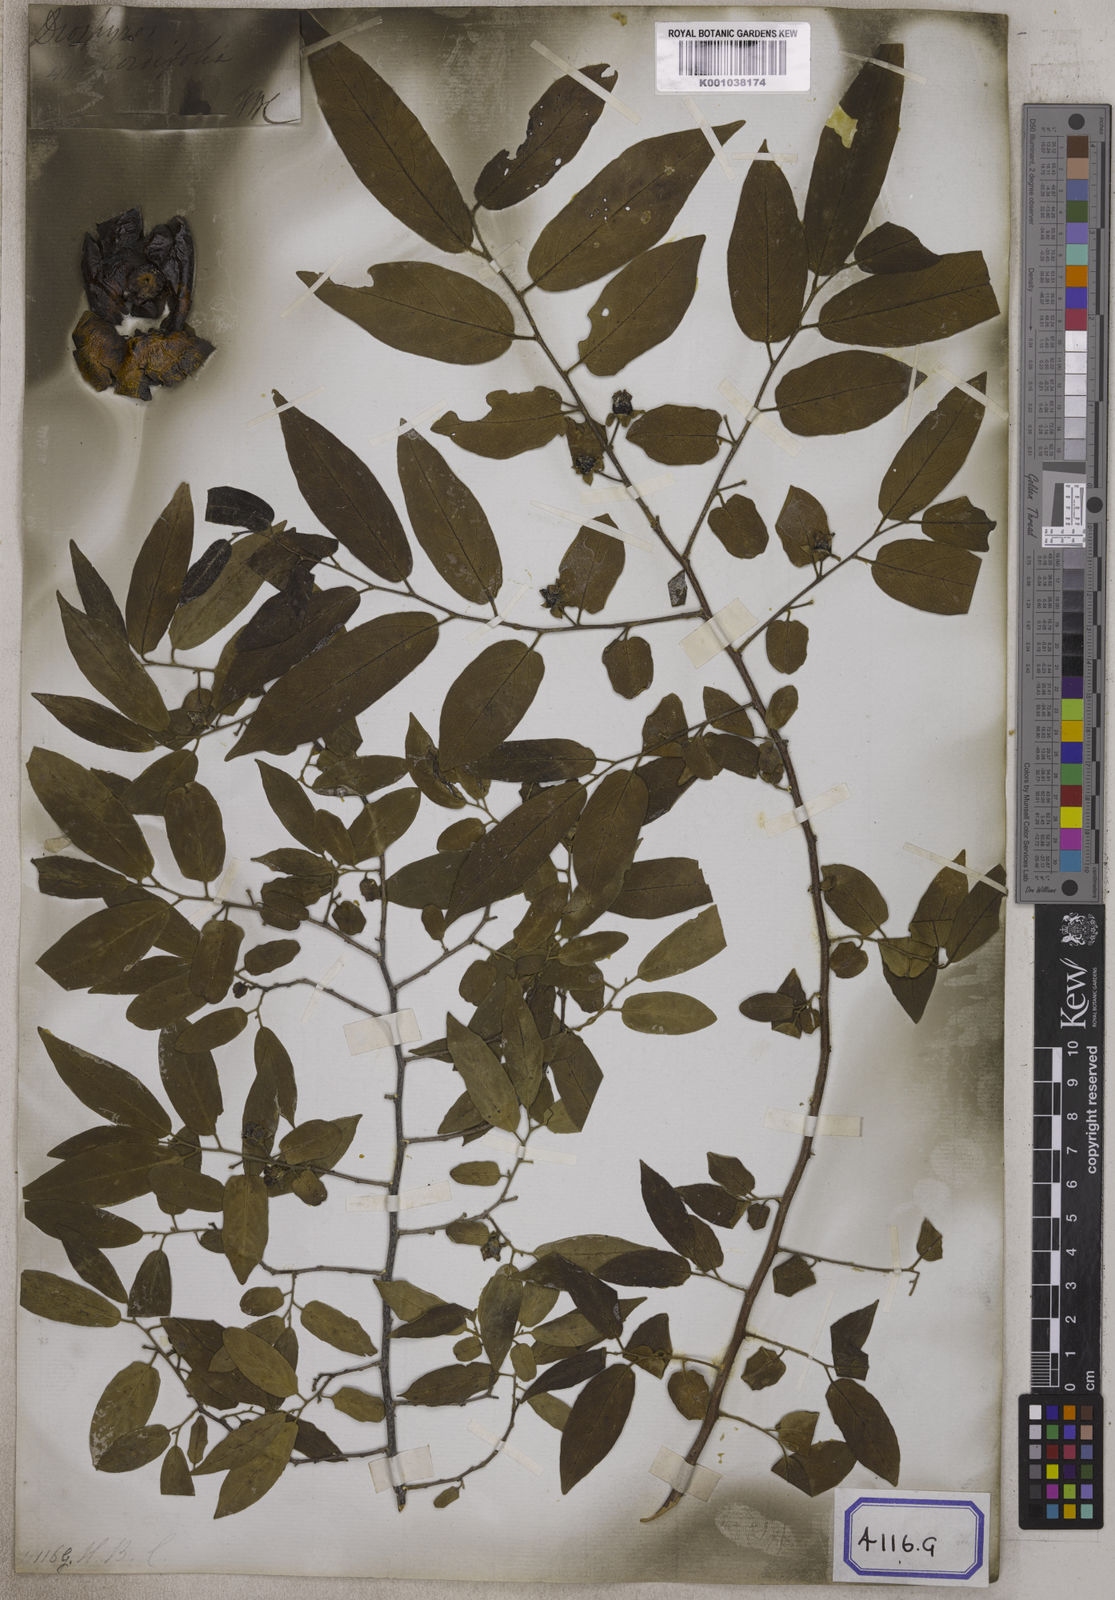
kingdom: Plantae
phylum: Tracheophyta
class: Magnoliopsida
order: Ericales
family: Ebenaceae
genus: Diospyros
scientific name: Diospyros montana
